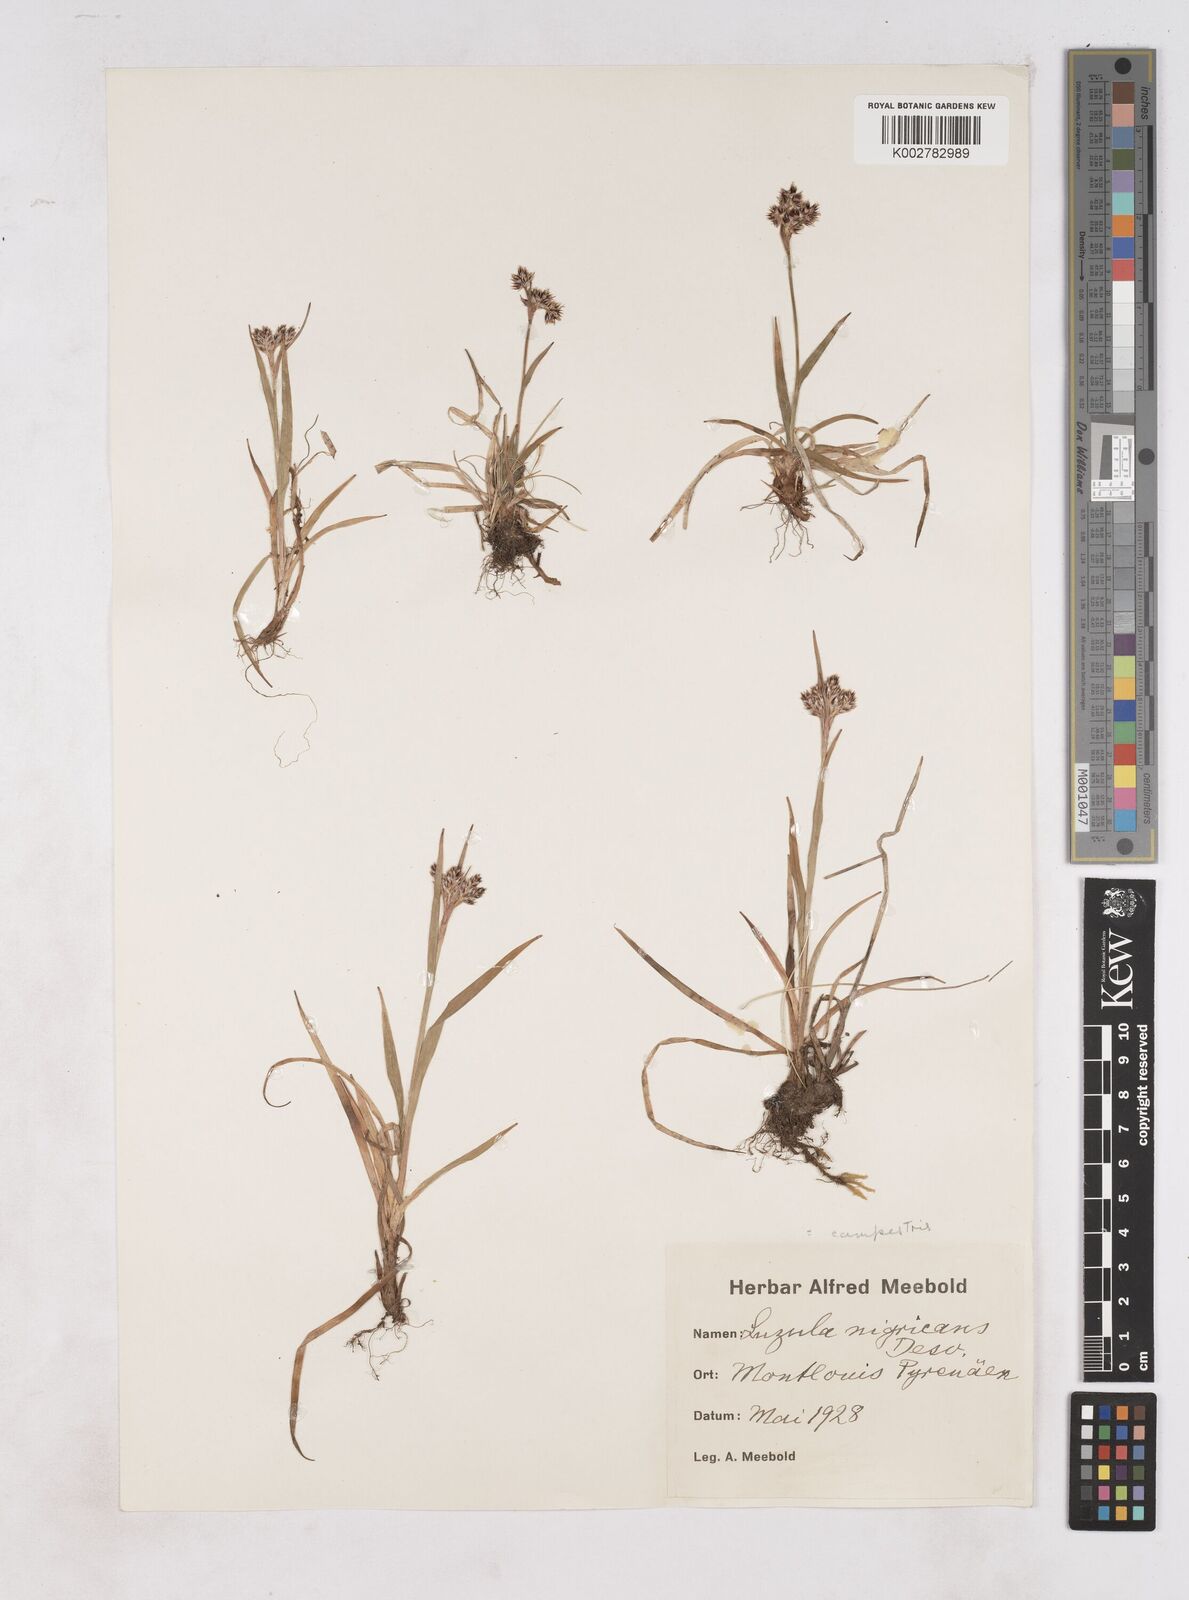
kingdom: Plantae
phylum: Tracheophyta
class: Liliopsida
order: Poales
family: Juncaceae
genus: Luzula
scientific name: Luzula campestris
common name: Field wood-rush
